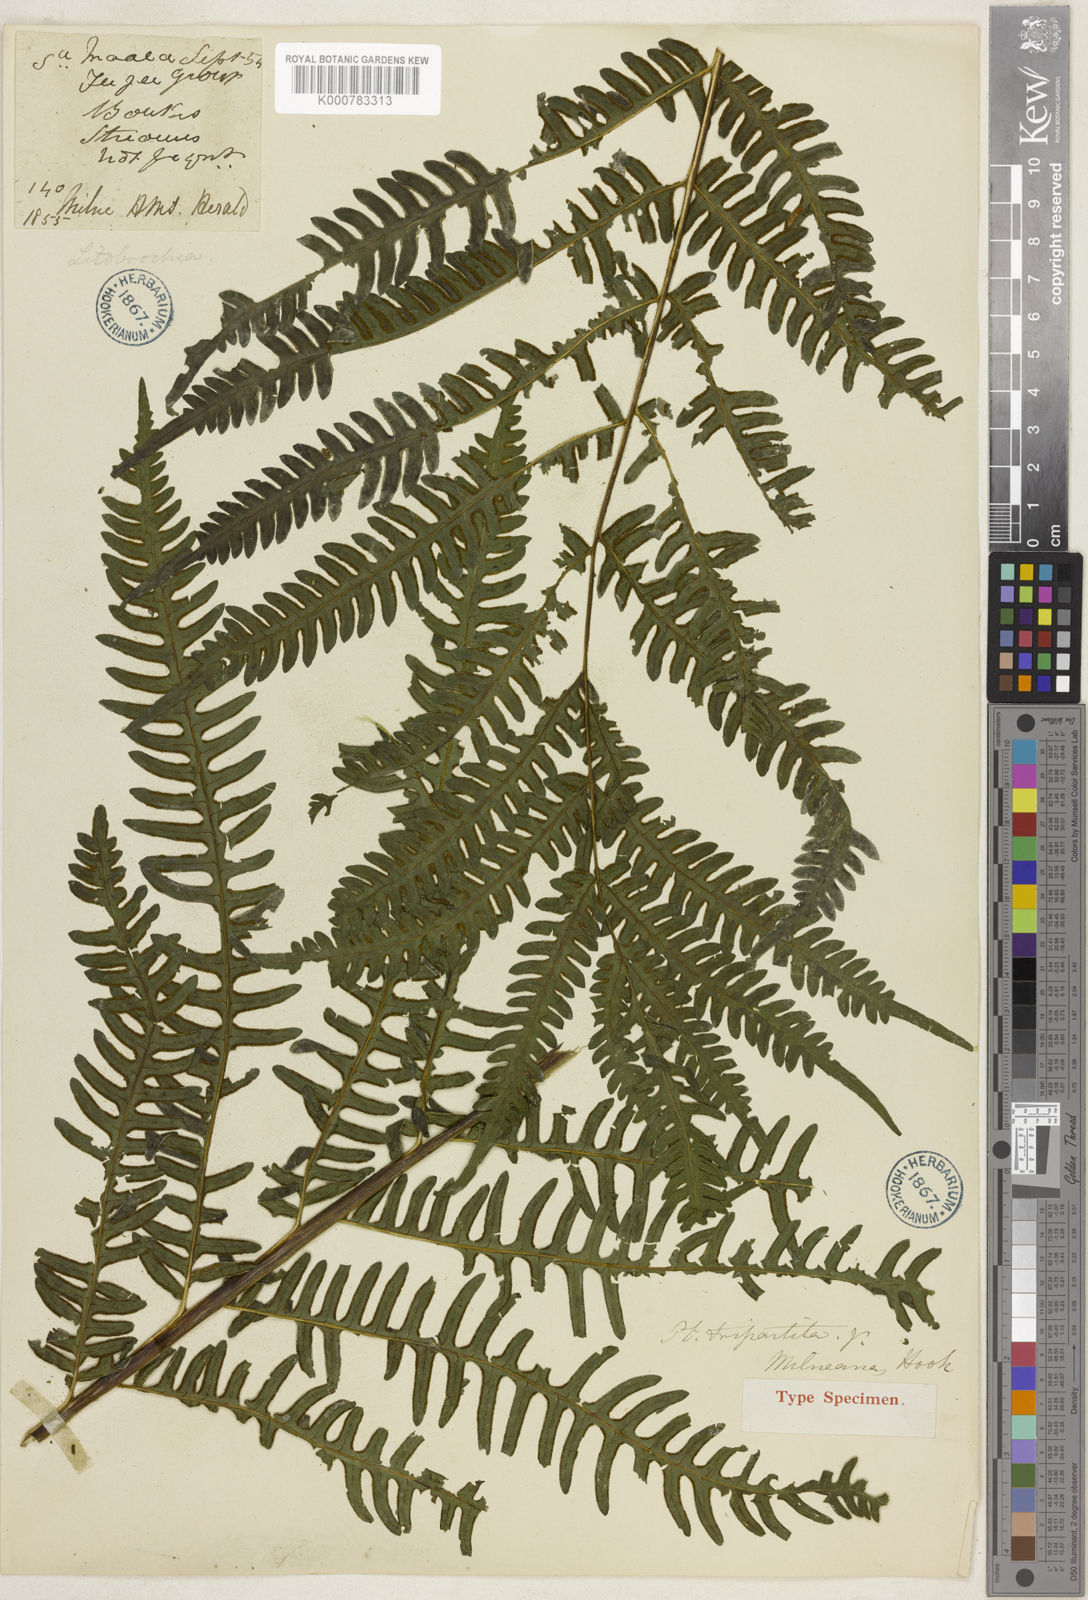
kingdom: Plantae
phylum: Tracheophyta
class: Polypodiopsida
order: Polypodiales
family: Pteridaceae
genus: Pteris
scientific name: Pteris tripartita
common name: Giant brake
